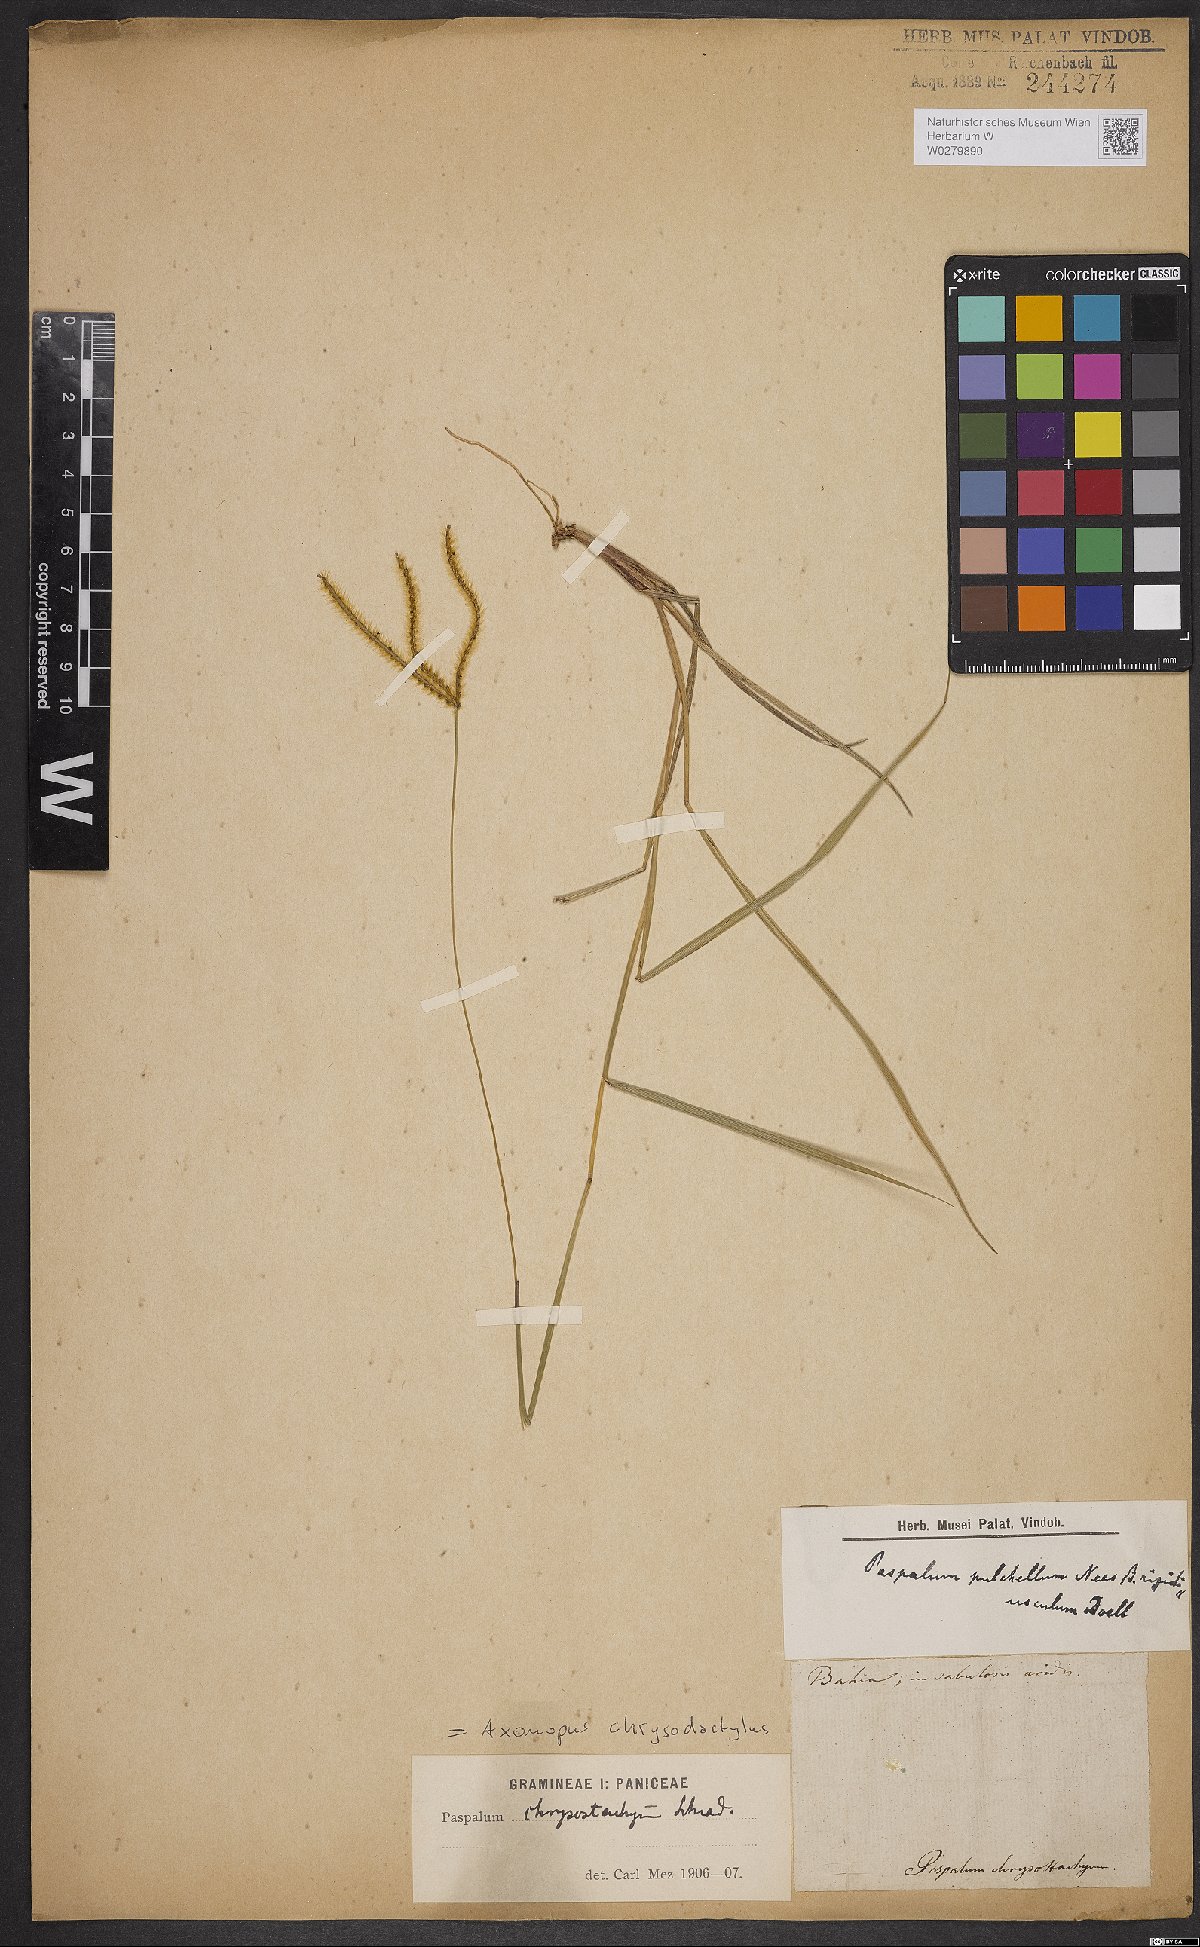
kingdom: Plantae
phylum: Tracheophyta
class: Liliopsida
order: Poales
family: Poaceae
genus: Axonopus
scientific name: Axonopus aureus
